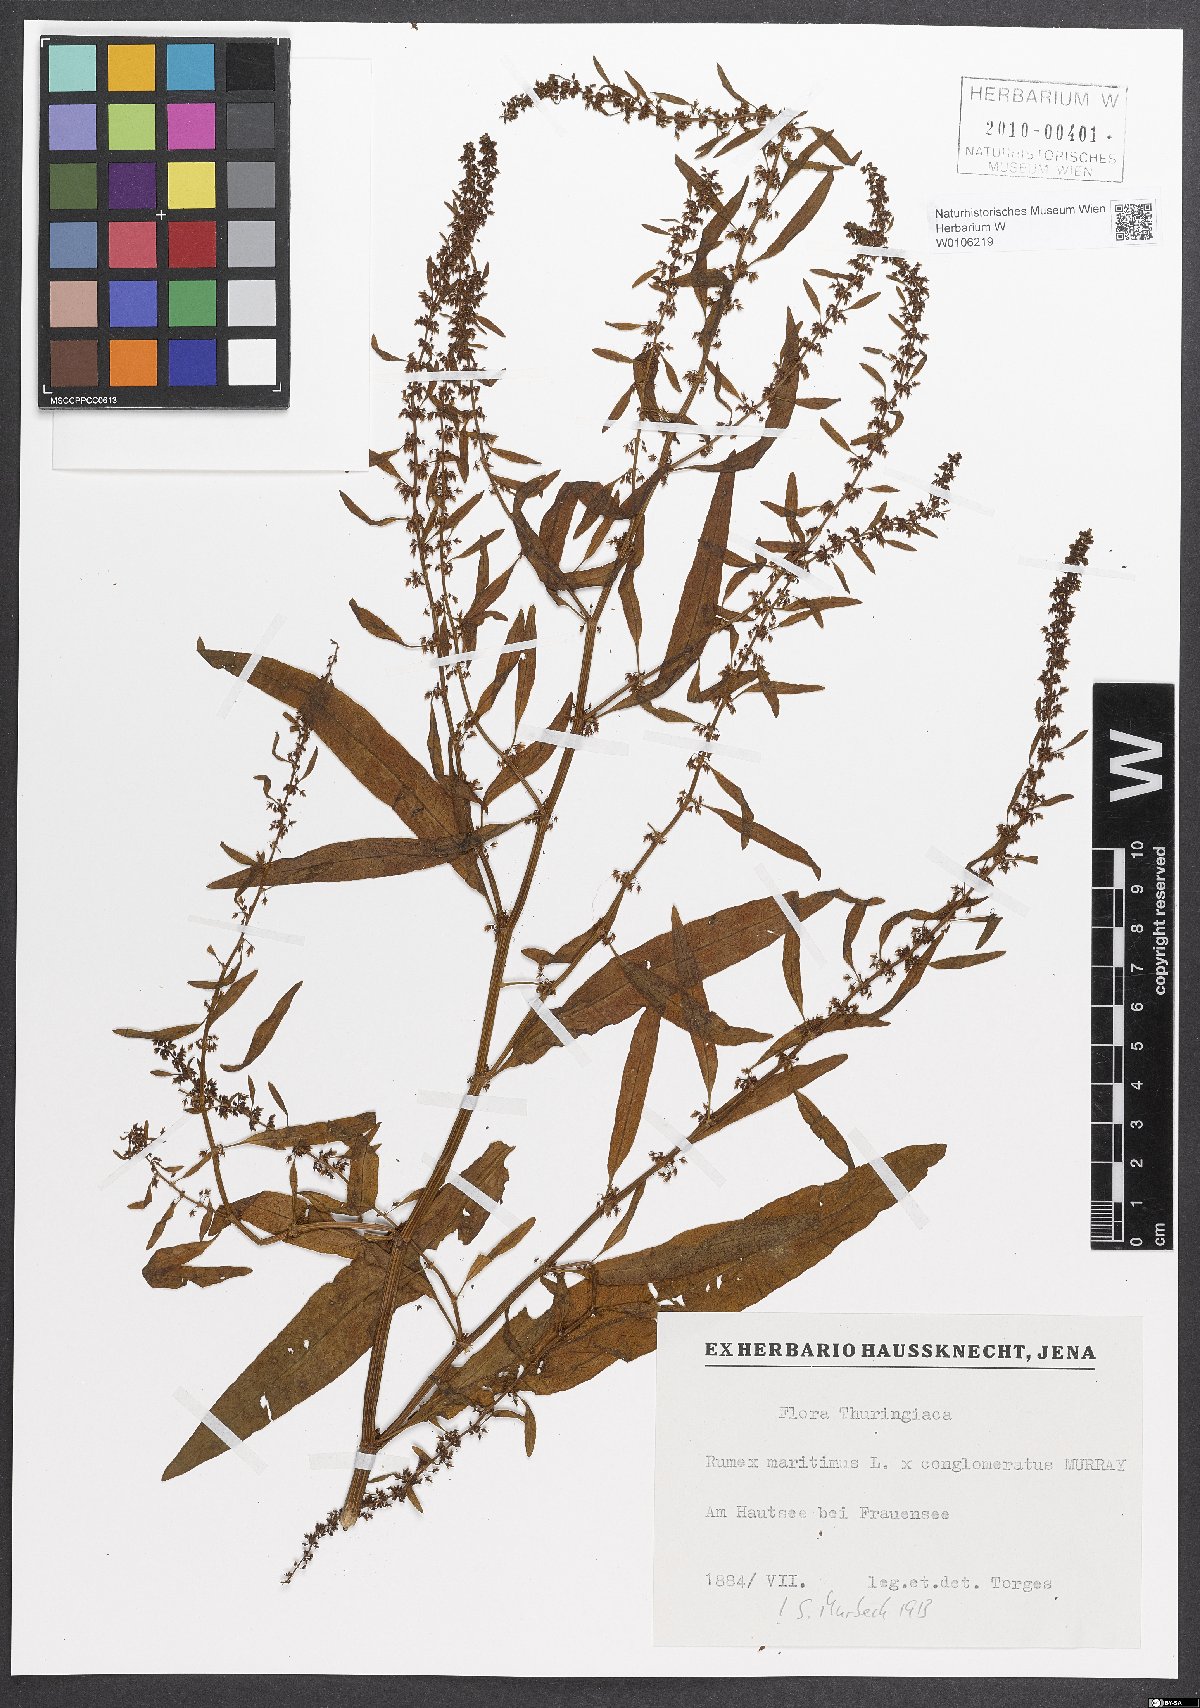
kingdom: Plantae
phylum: Tracheophyta
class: Magnoliopsida
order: Caryophyllales
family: Polygonaceae
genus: Rumex
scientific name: Rumex
